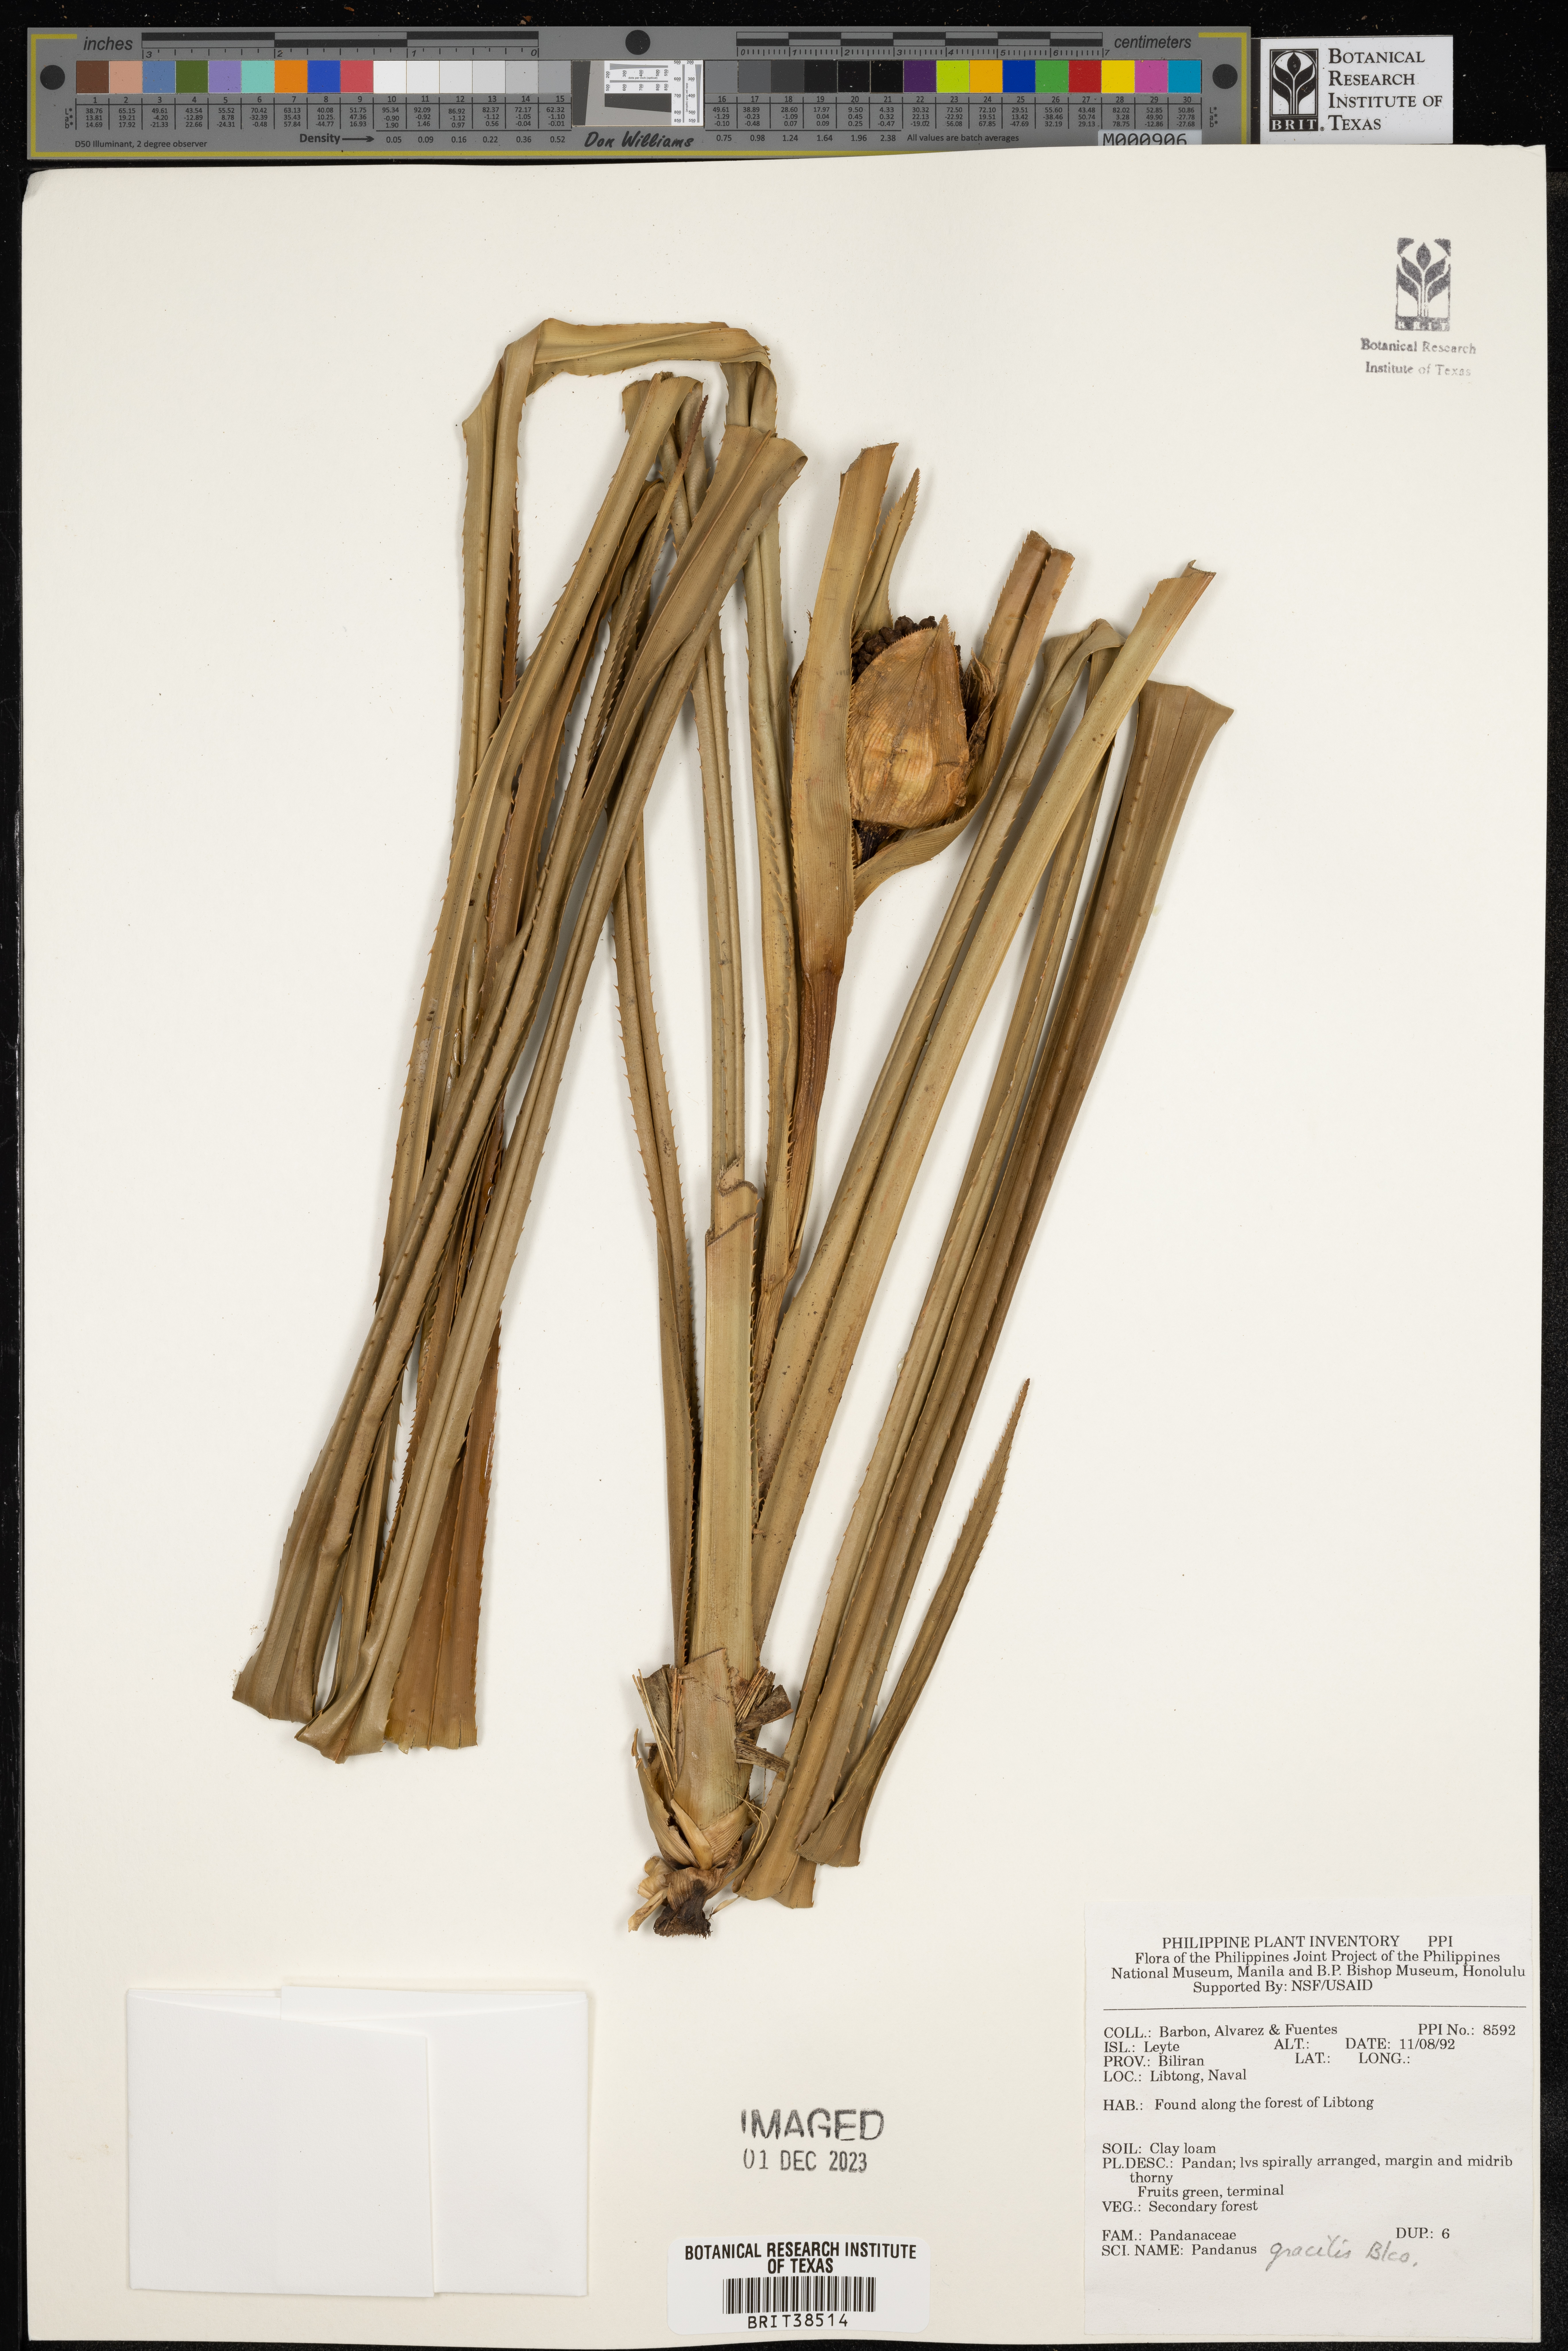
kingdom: Plantae
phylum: Tracheophyta
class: Liliopsida
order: Pandanales
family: Pandanaceae
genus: Pandanus
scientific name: Pandanus gracilis
